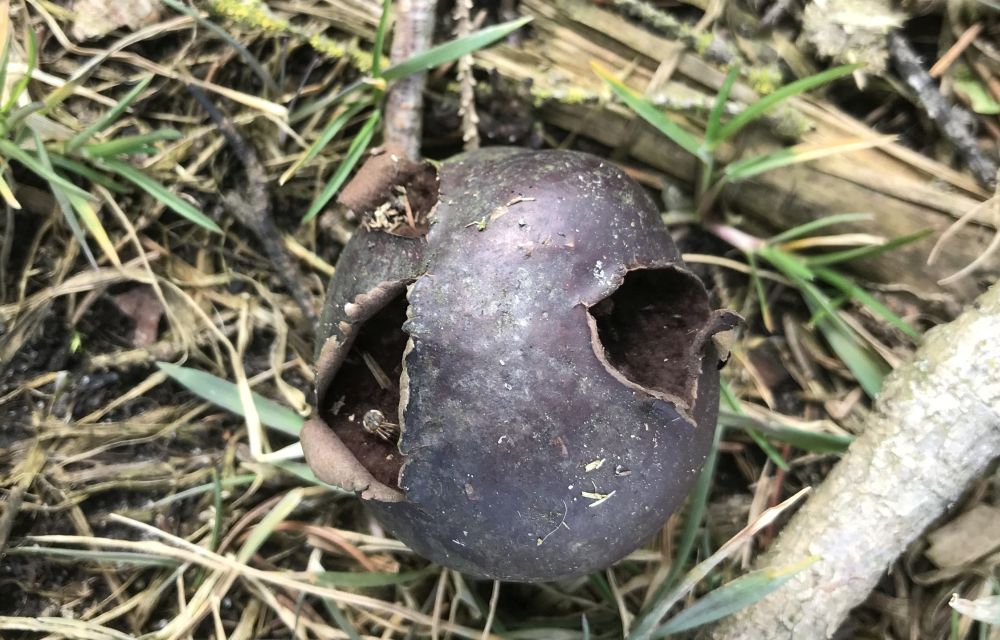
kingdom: Fungi
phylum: Basidiomycota
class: Agaricomycetes
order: Agaricales
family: Lycoperdaceae
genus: Bovista
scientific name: Bovista nigrescens
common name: sortagtig bovist
